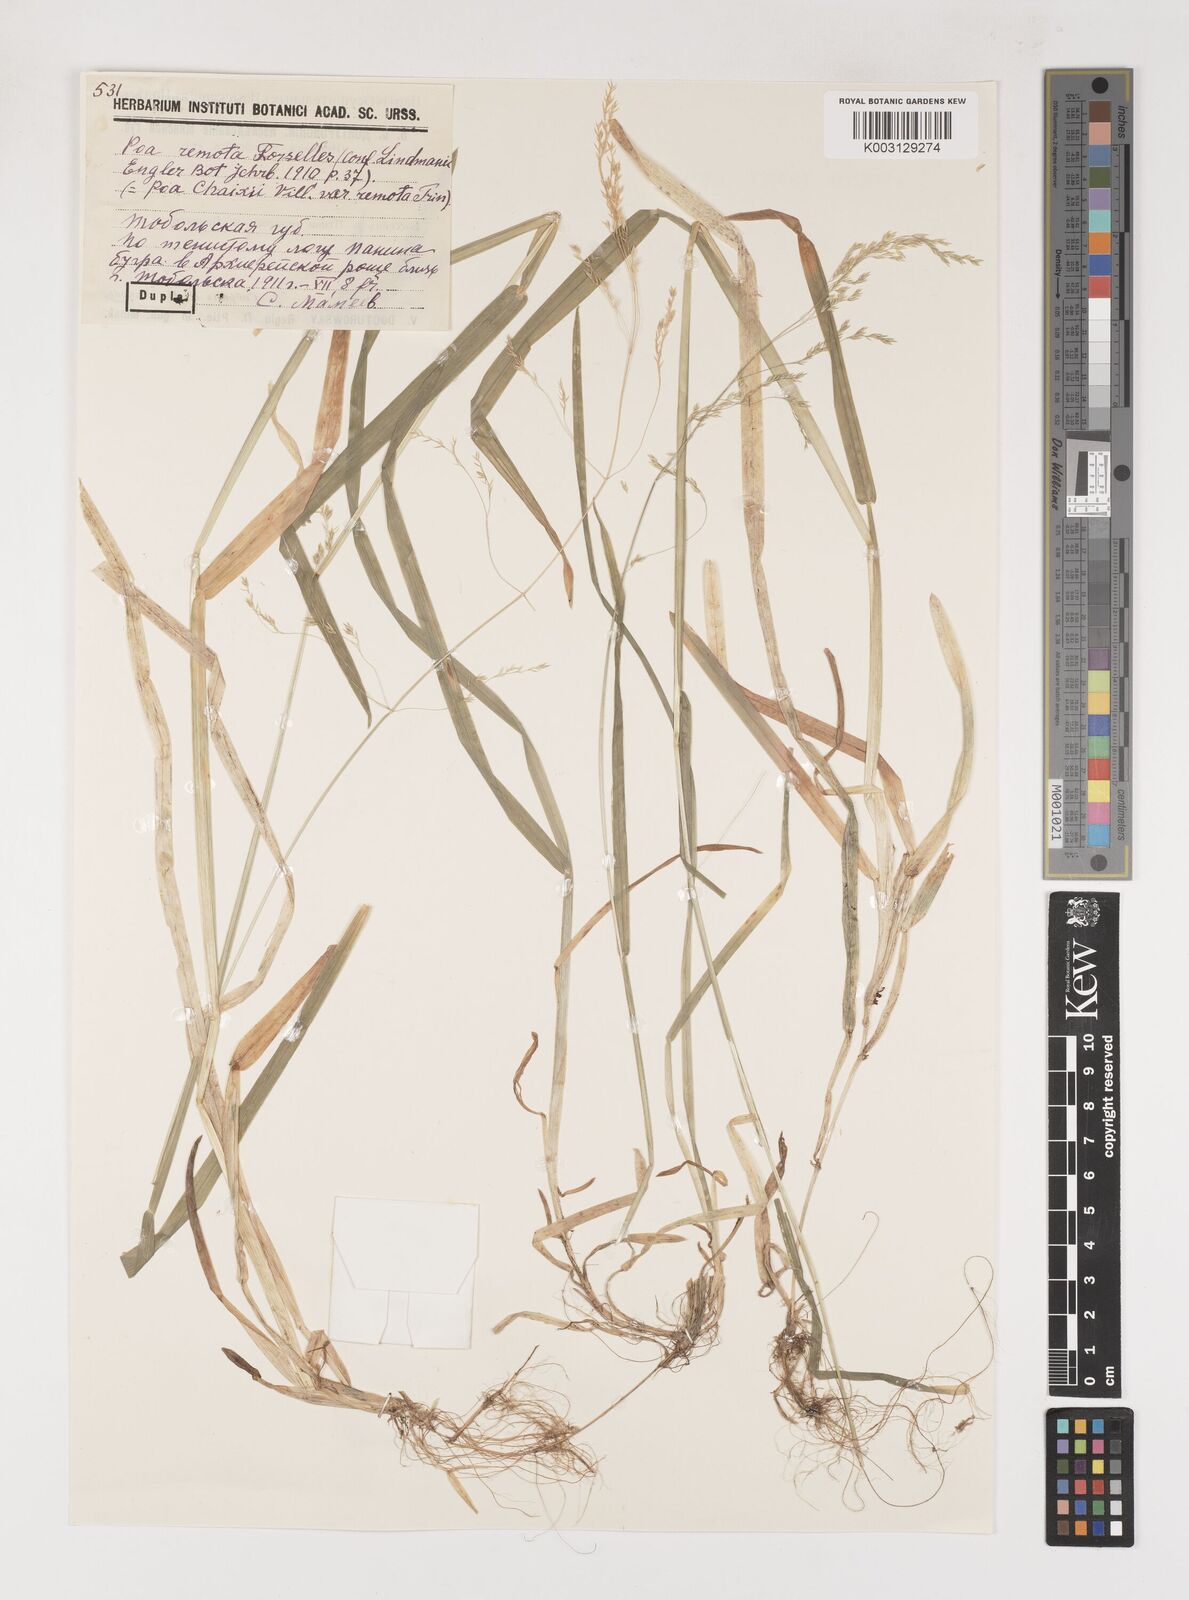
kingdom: Plantae
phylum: Tracheophyta
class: Liliopsida
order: Poales
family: Poaceae
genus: Poa
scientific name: Poa remota
